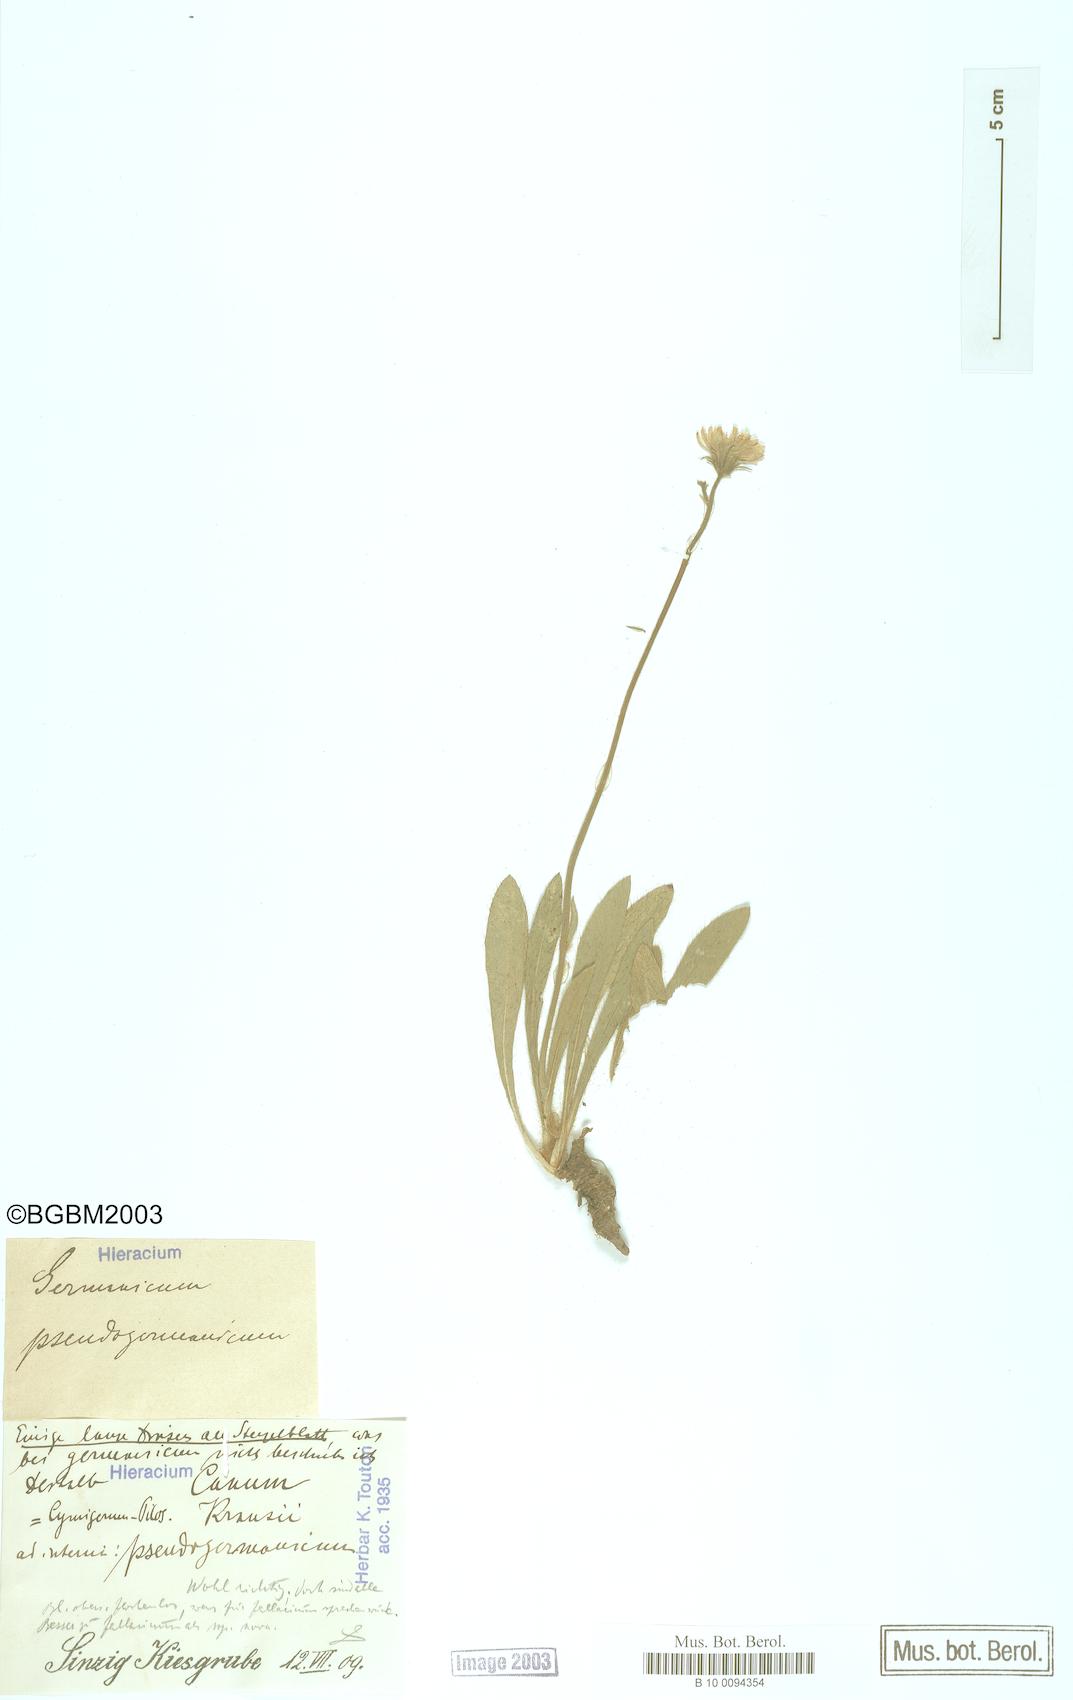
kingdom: Plantae
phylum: Tracheophyta
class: Magnoliopsida
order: Asterales
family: Asteraceae
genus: Pilosella
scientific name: Pilosella fallacina
